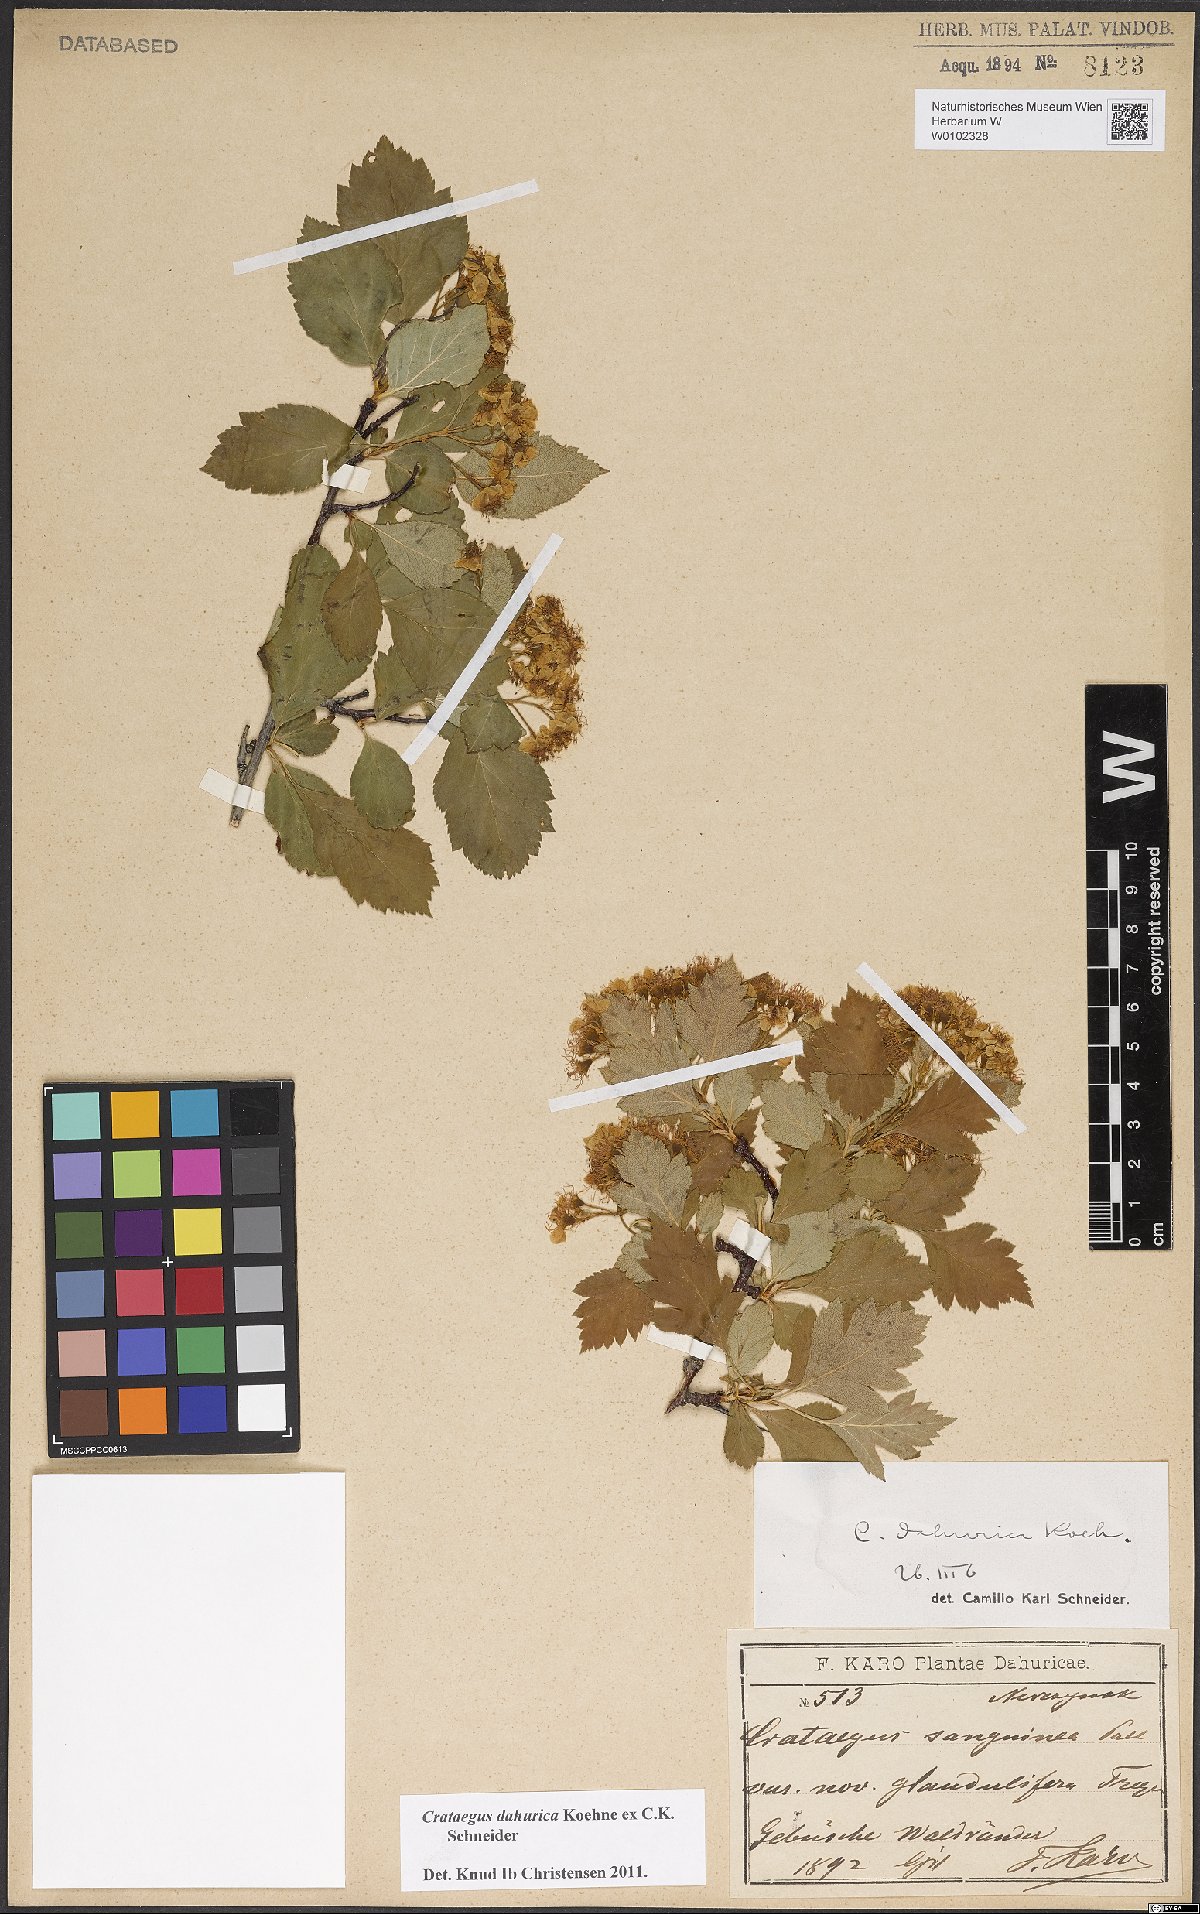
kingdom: Plantae
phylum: Tracheophyta
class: Magnoliopsida
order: Rosales
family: Rosaceae
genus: Crataegus
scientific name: Crataegus dahurica
